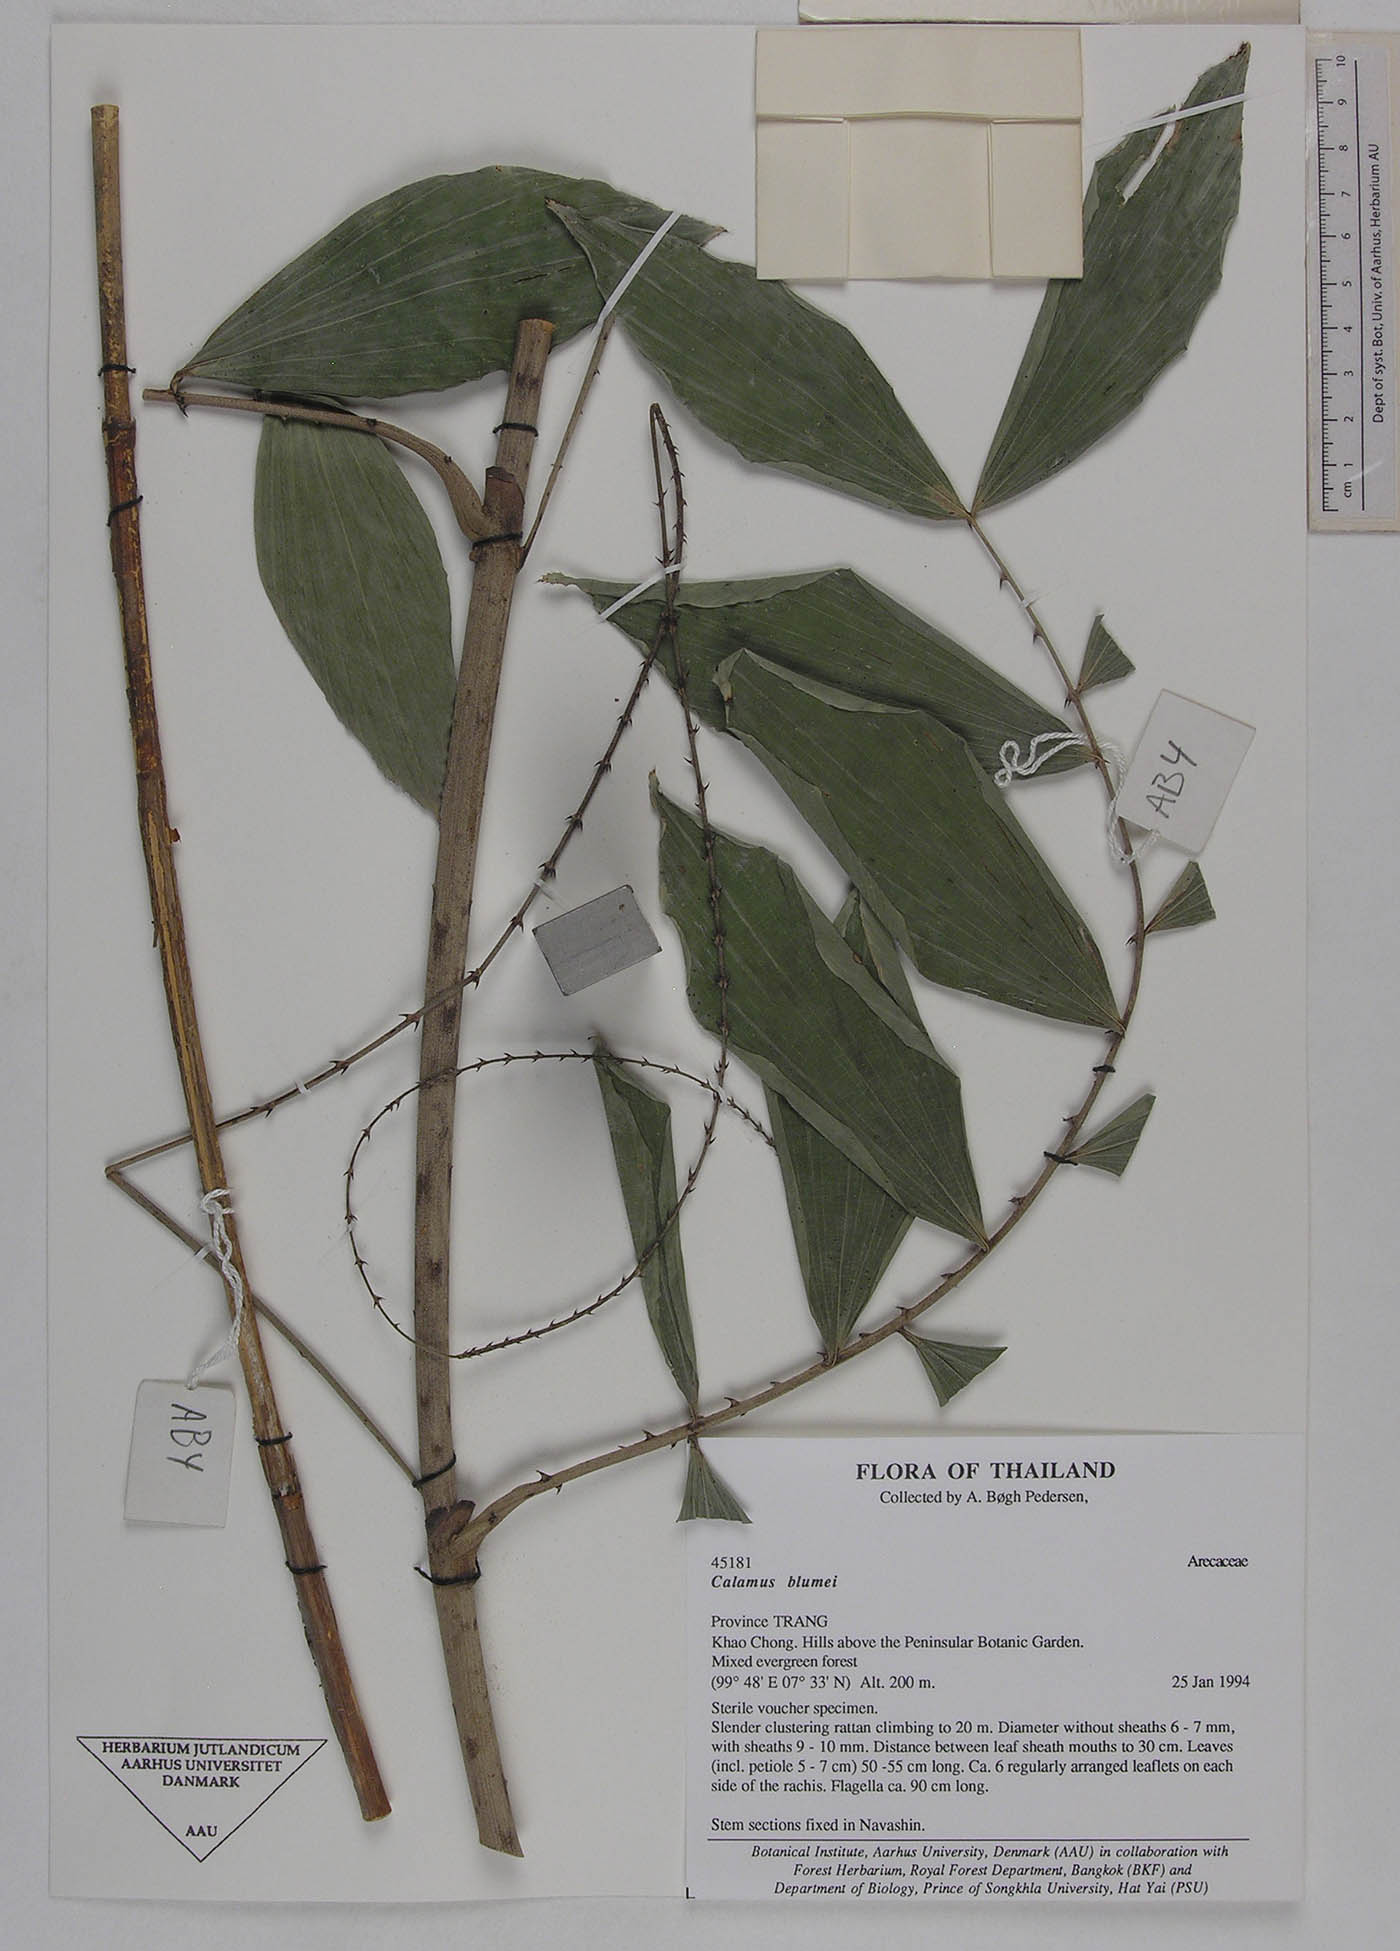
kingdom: Plantae
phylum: Tracheophyta
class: Liliopsida
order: Arecales
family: Arecaceae
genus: Calamus
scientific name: Calamus rhomboideus
